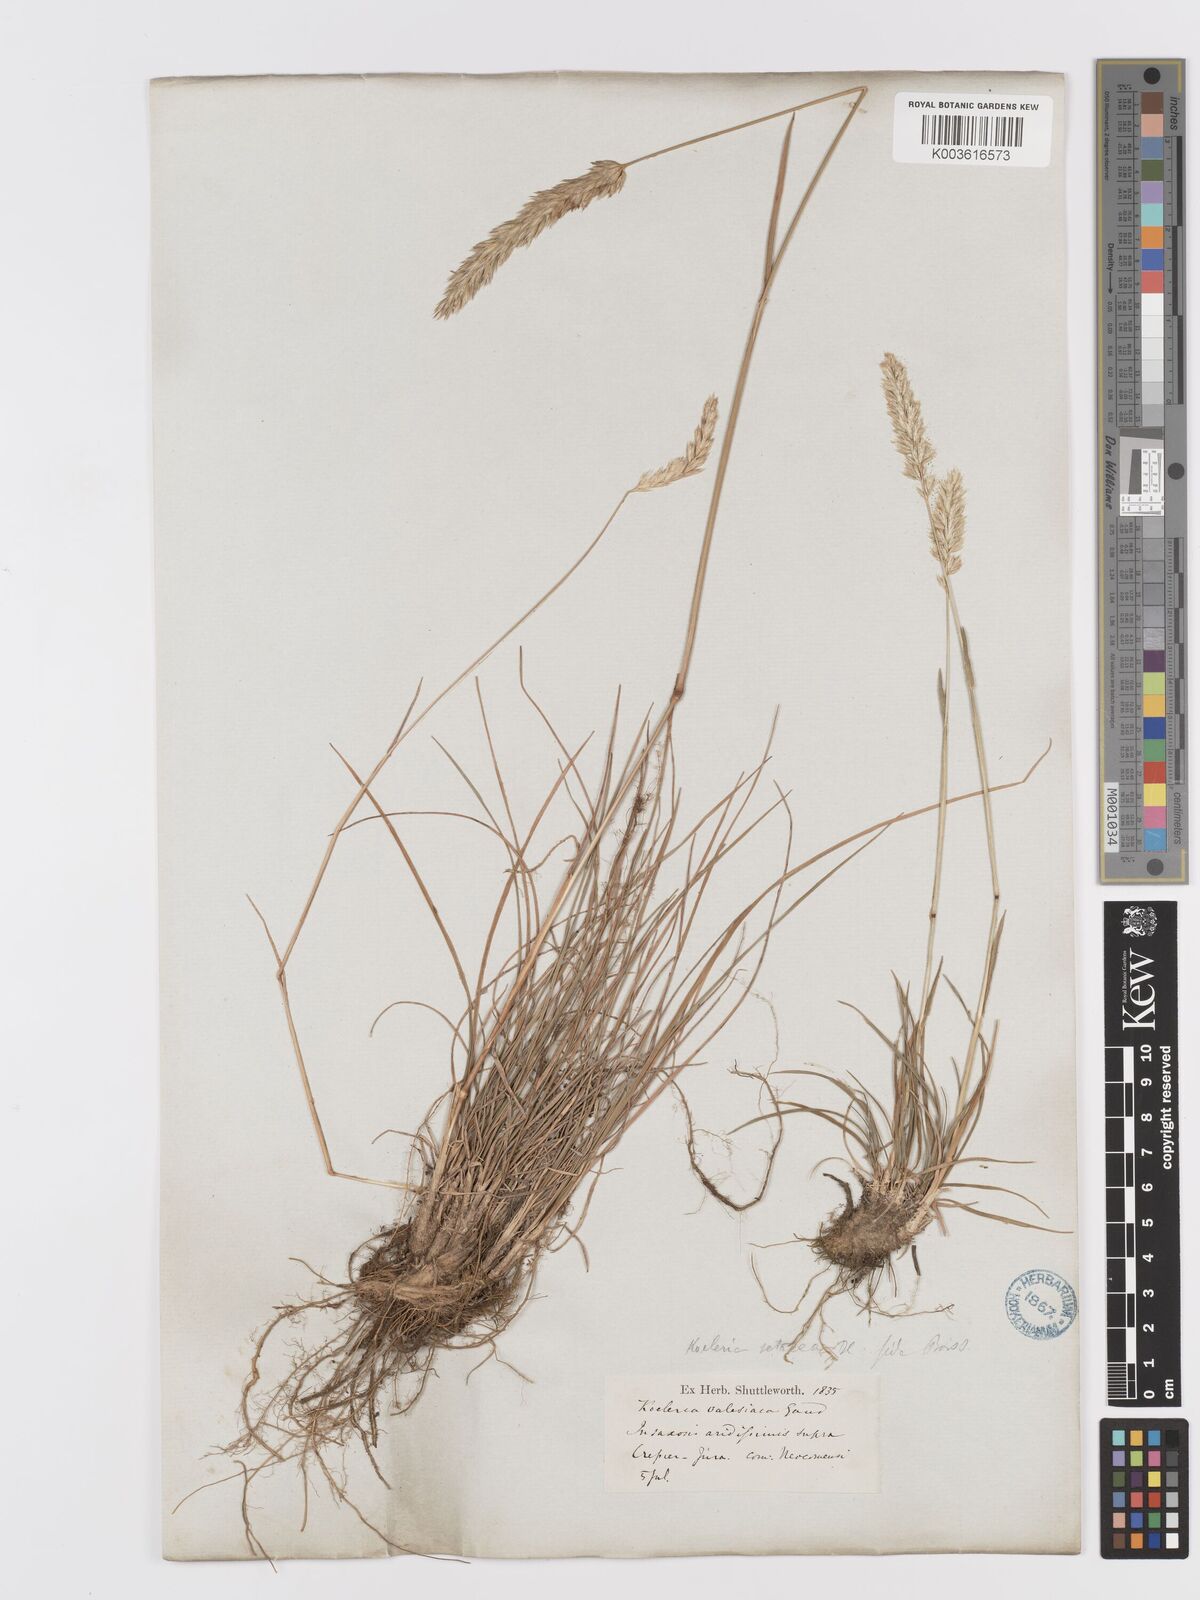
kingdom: Plantae
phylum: Tracheophyta
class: Liliopsida
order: Poales
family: Poaceae
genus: Koeleria
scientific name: Koeleria vallesiana
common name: Somerset hair-grass
